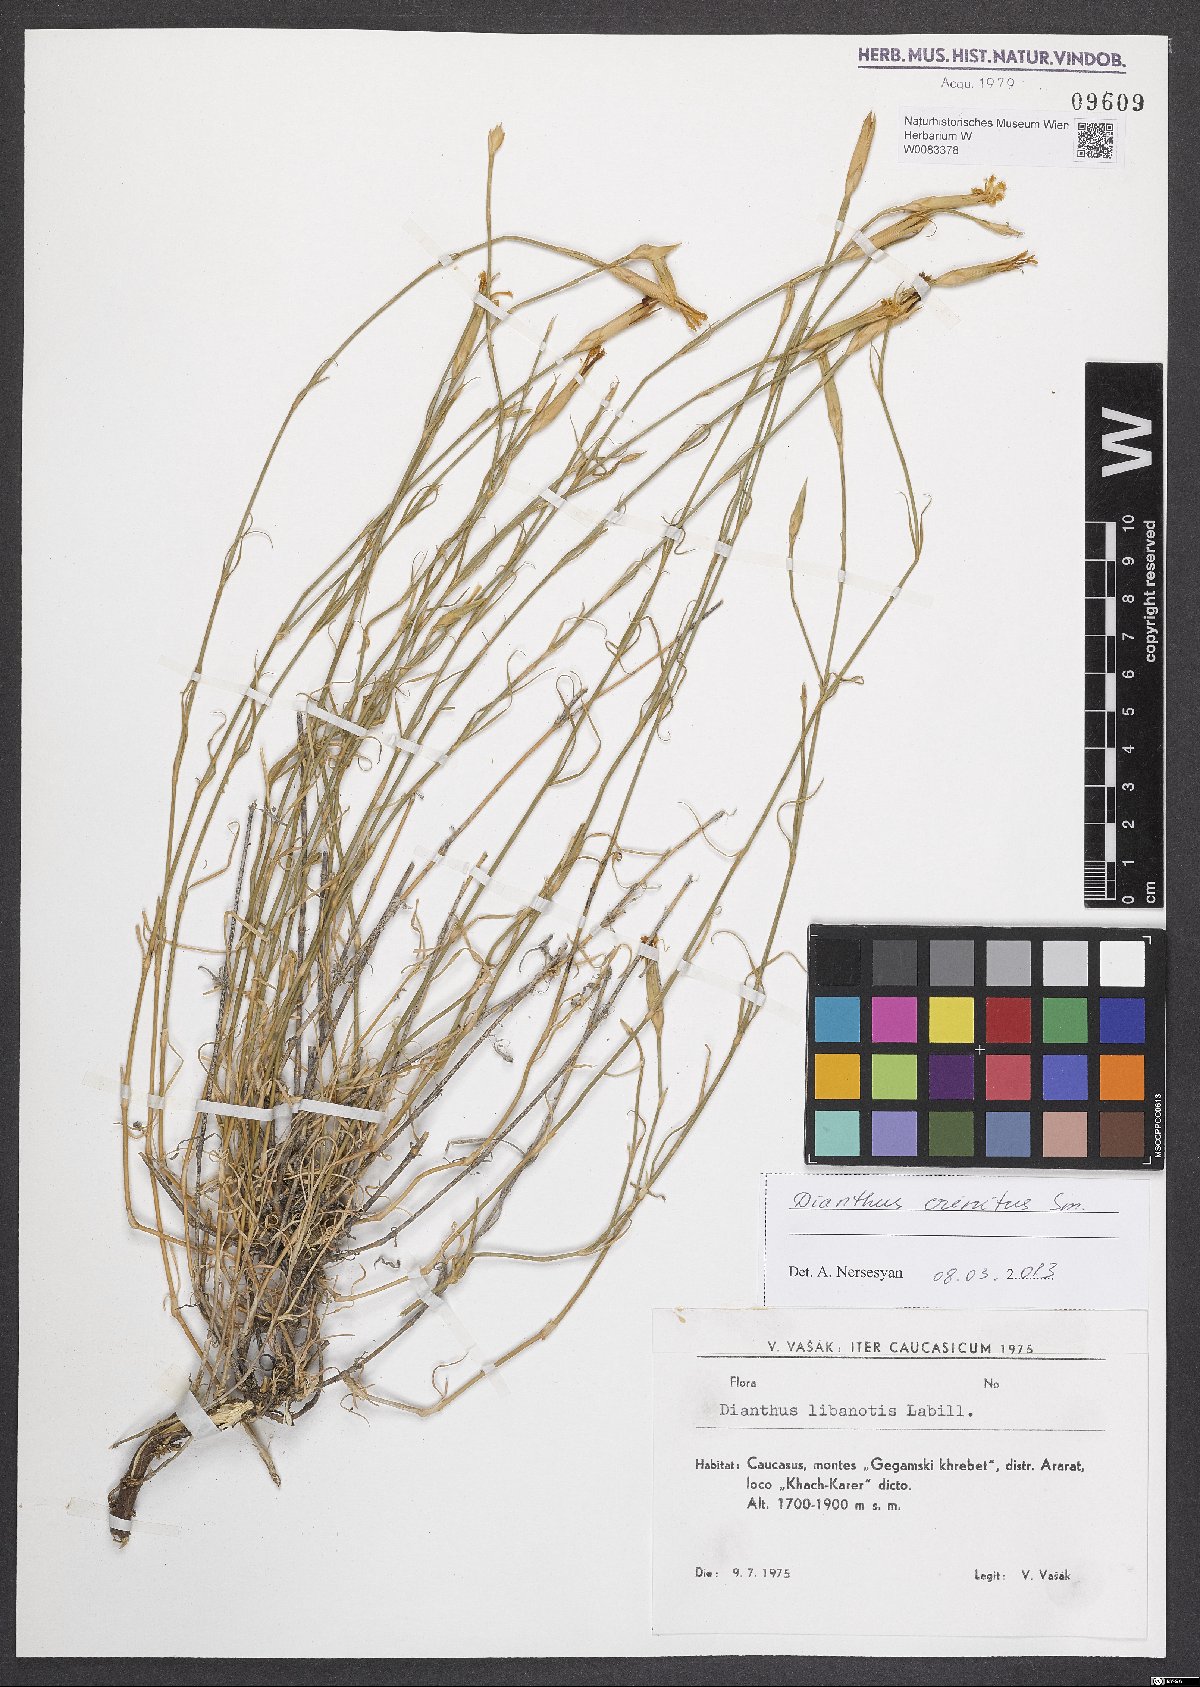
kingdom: Plantae
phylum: Tracheophyta
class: Magnoliopsida
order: Caryophyllales
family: Caryophyllaceae
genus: Dianthus
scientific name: Dianthus crinitus
